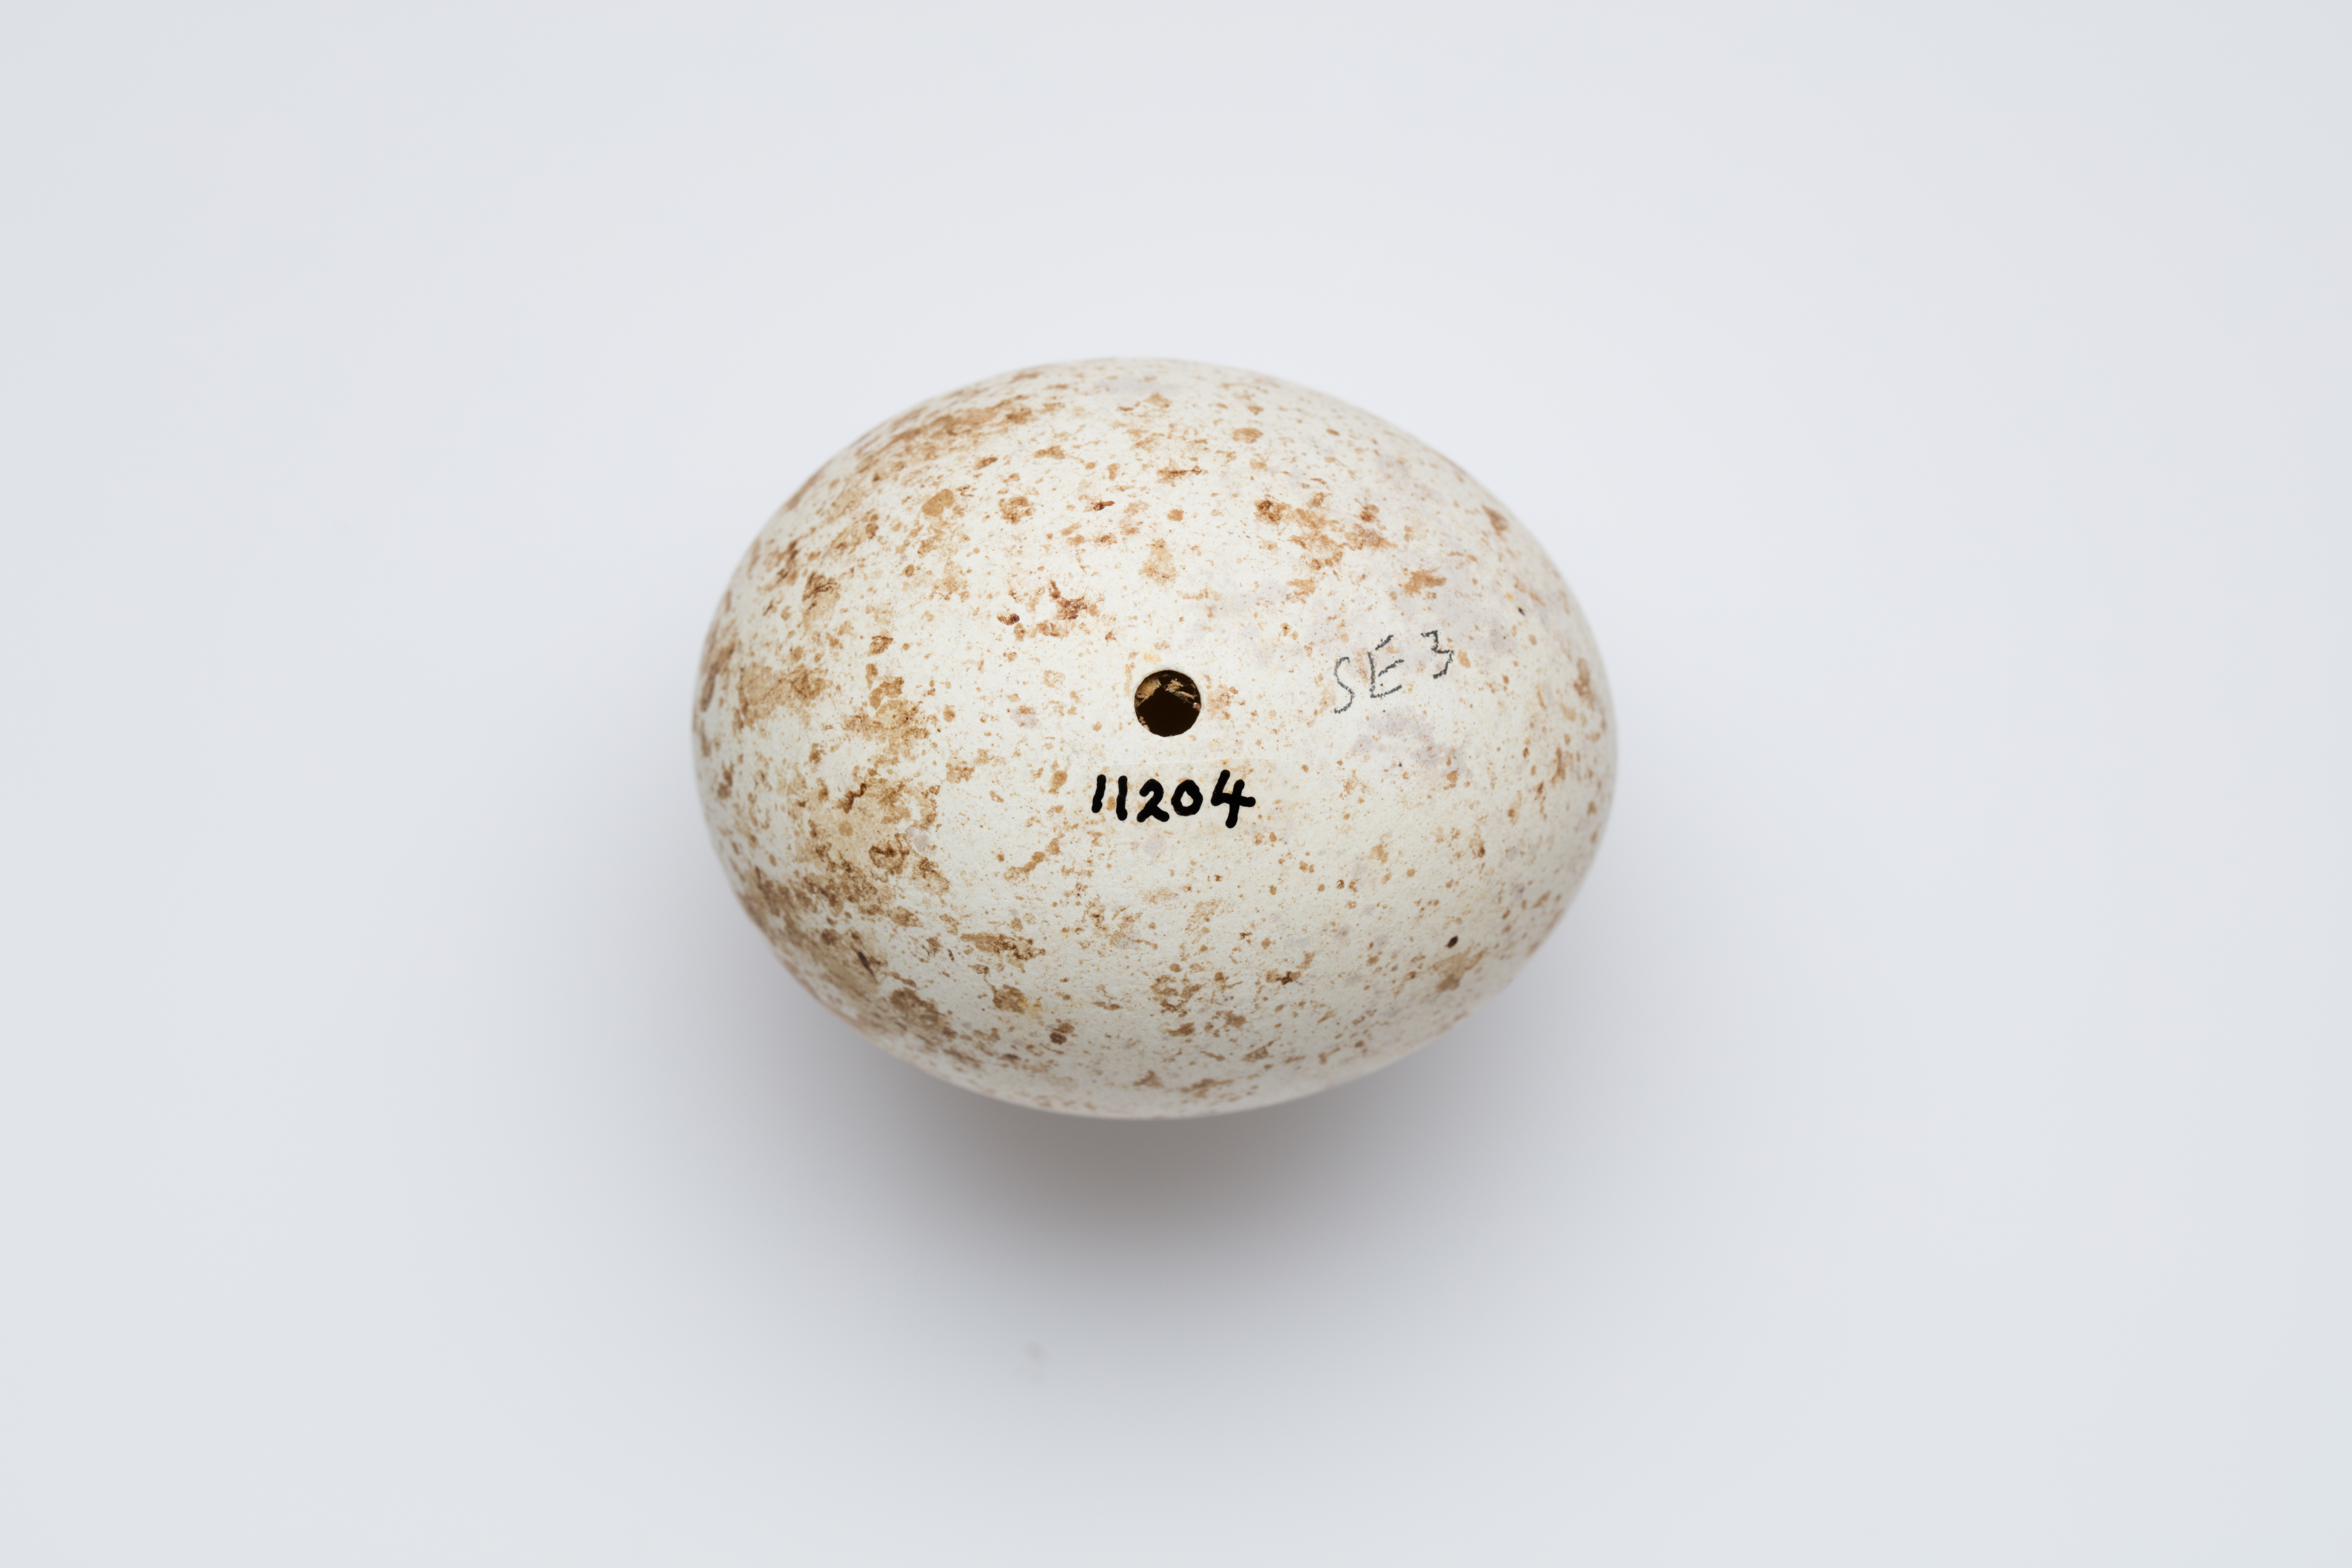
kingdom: Animalia
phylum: Chordata
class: Aves
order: Accipitriformes
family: Accipitridae
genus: Hieraaetus
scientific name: Hieraaetus morphnoides
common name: Little eagle
